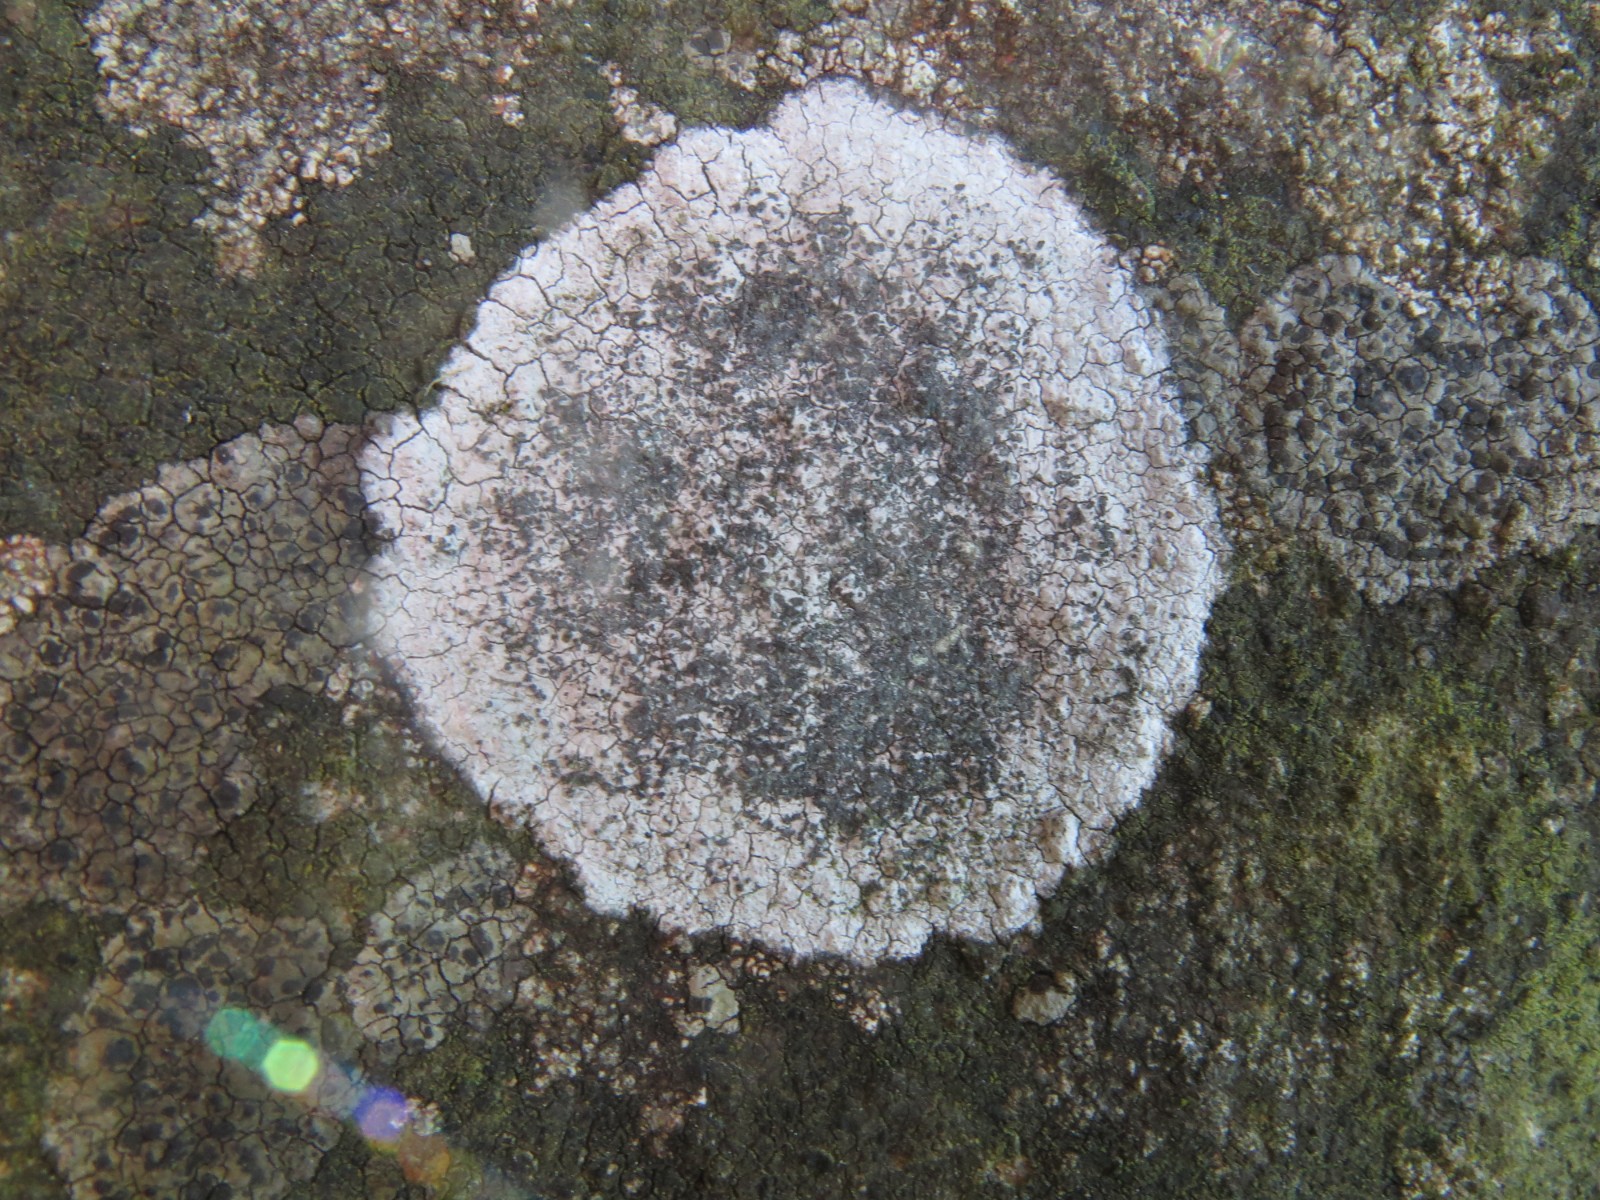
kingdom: Fungi
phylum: Ascomycota
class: Lecanoromycetes
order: Lecideales
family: Lecideaceae
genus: Porpidia
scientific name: Porpidia soredizodes
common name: sortkornet bredskivelav
